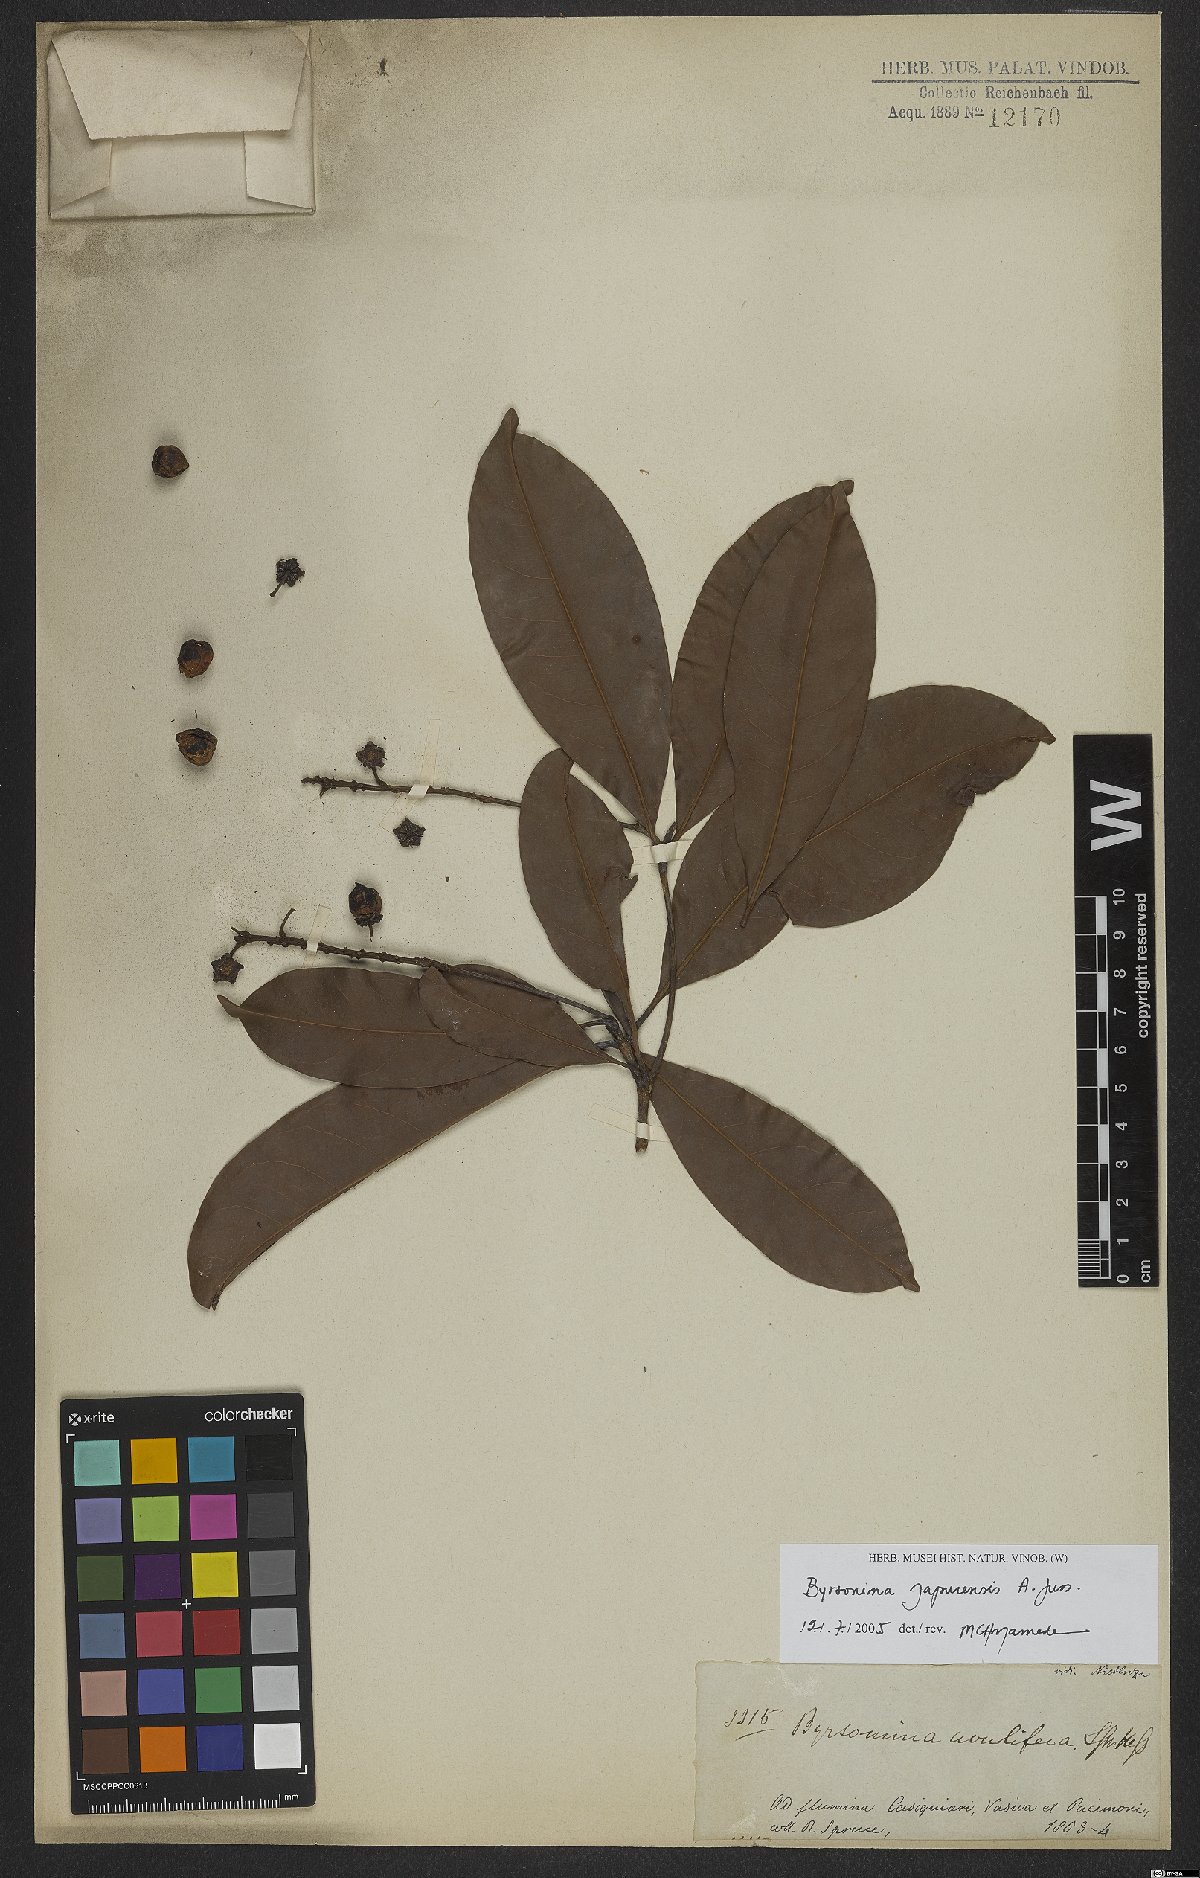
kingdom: Plantae
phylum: Tracheophyta
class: Magnoliopsida
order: Malpighiales
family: Malpighiaceae
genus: Byrsonima
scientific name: Byrsonima japurensis
